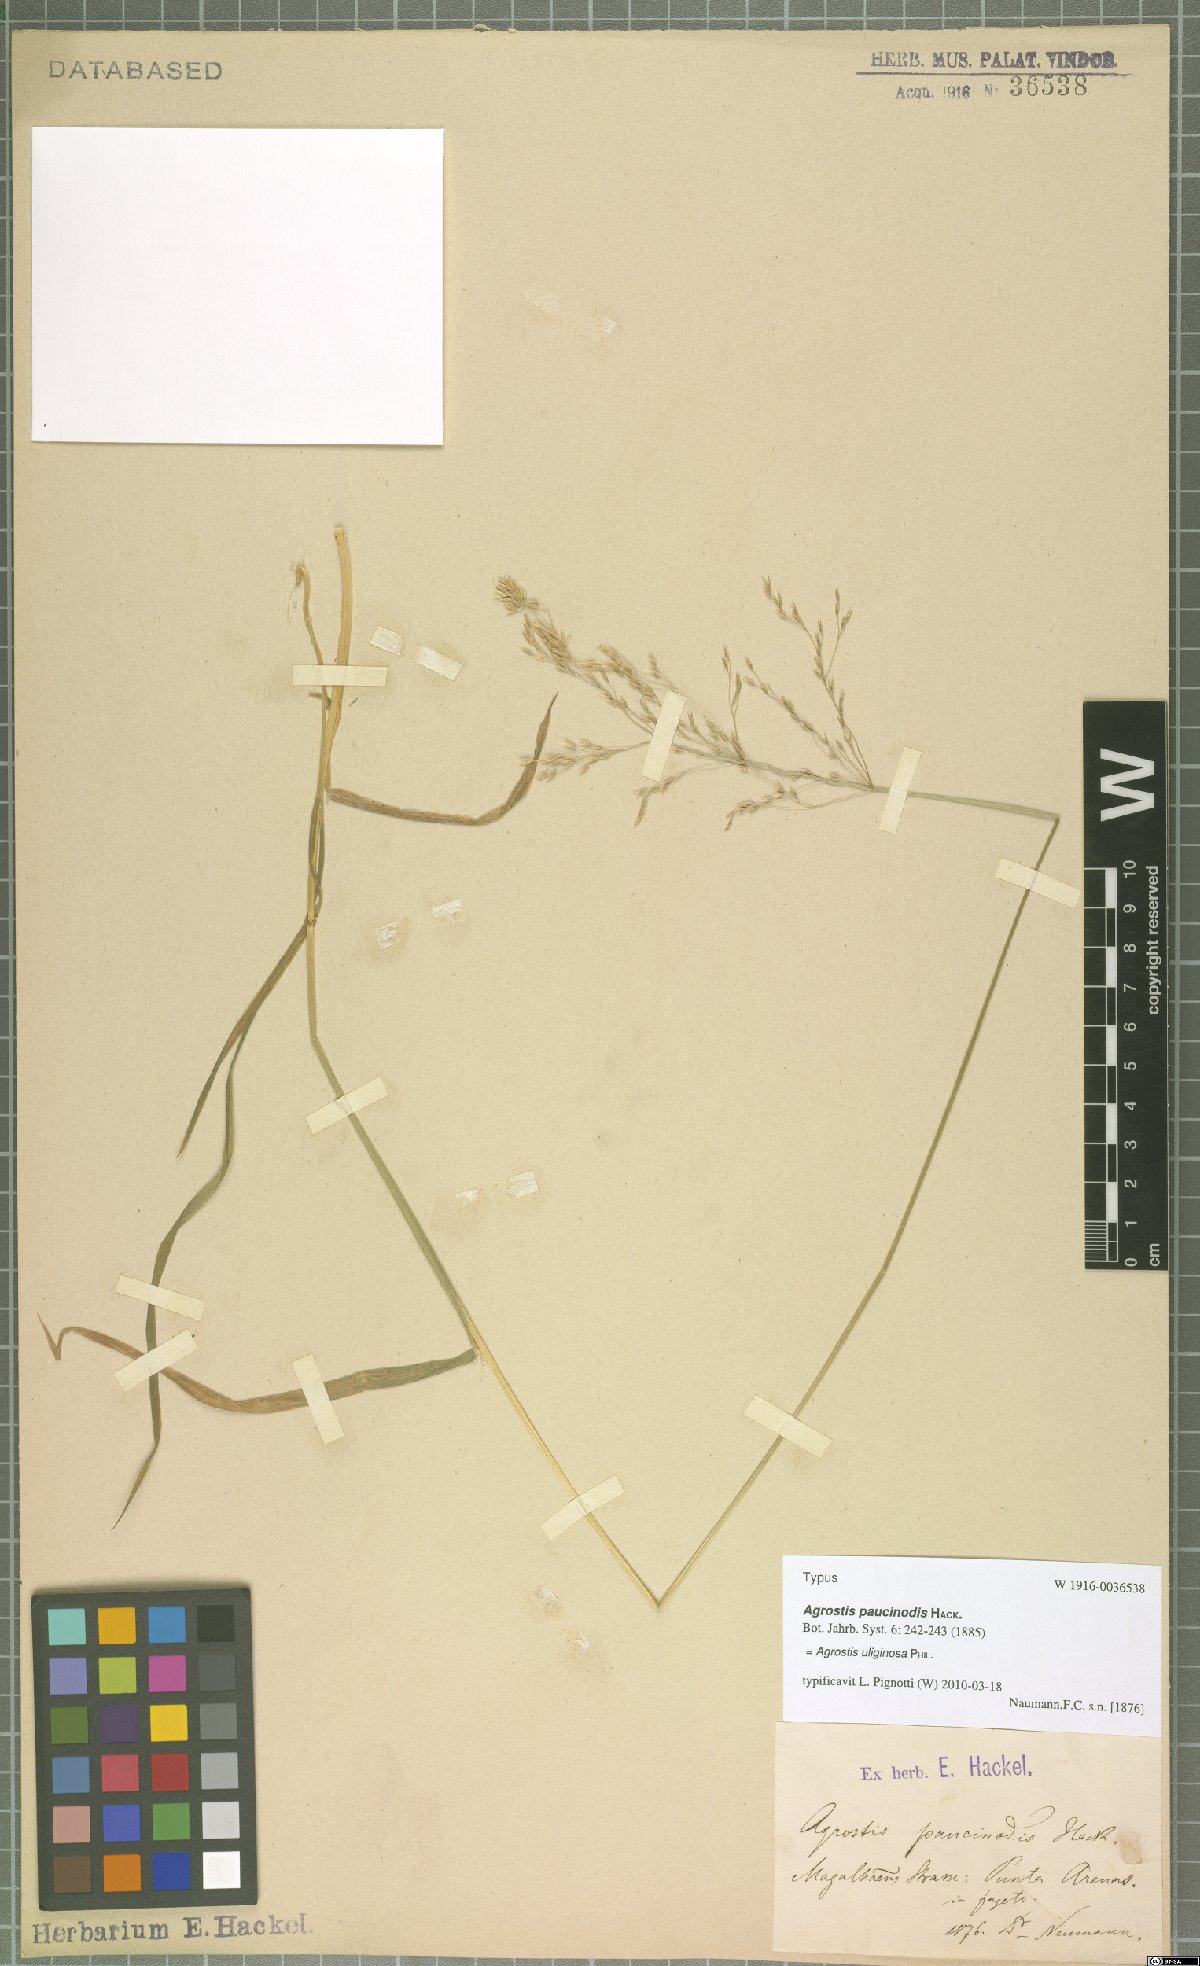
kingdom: Plantae
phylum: Tracheophyta
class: Liliopsida
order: Poales
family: Poaceae
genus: Agrostis
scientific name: Agrostis uliginosa
